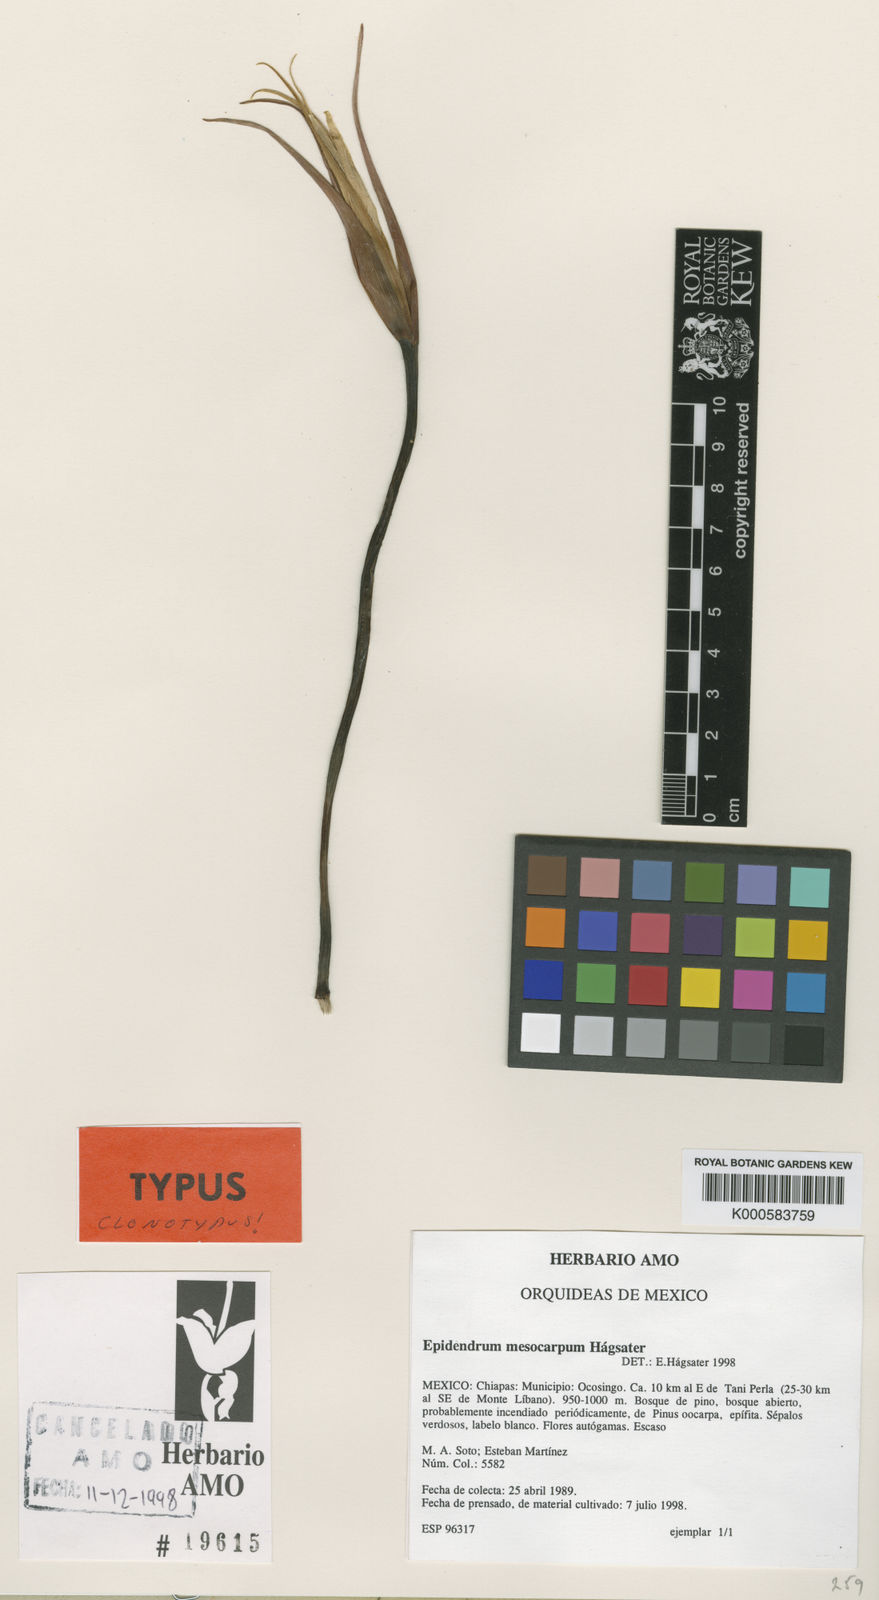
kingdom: Plantae
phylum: Tracheophyta
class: Liliopsida
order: Asparagales
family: Orchidaceae
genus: Epidendrum
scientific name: Epidendrum
